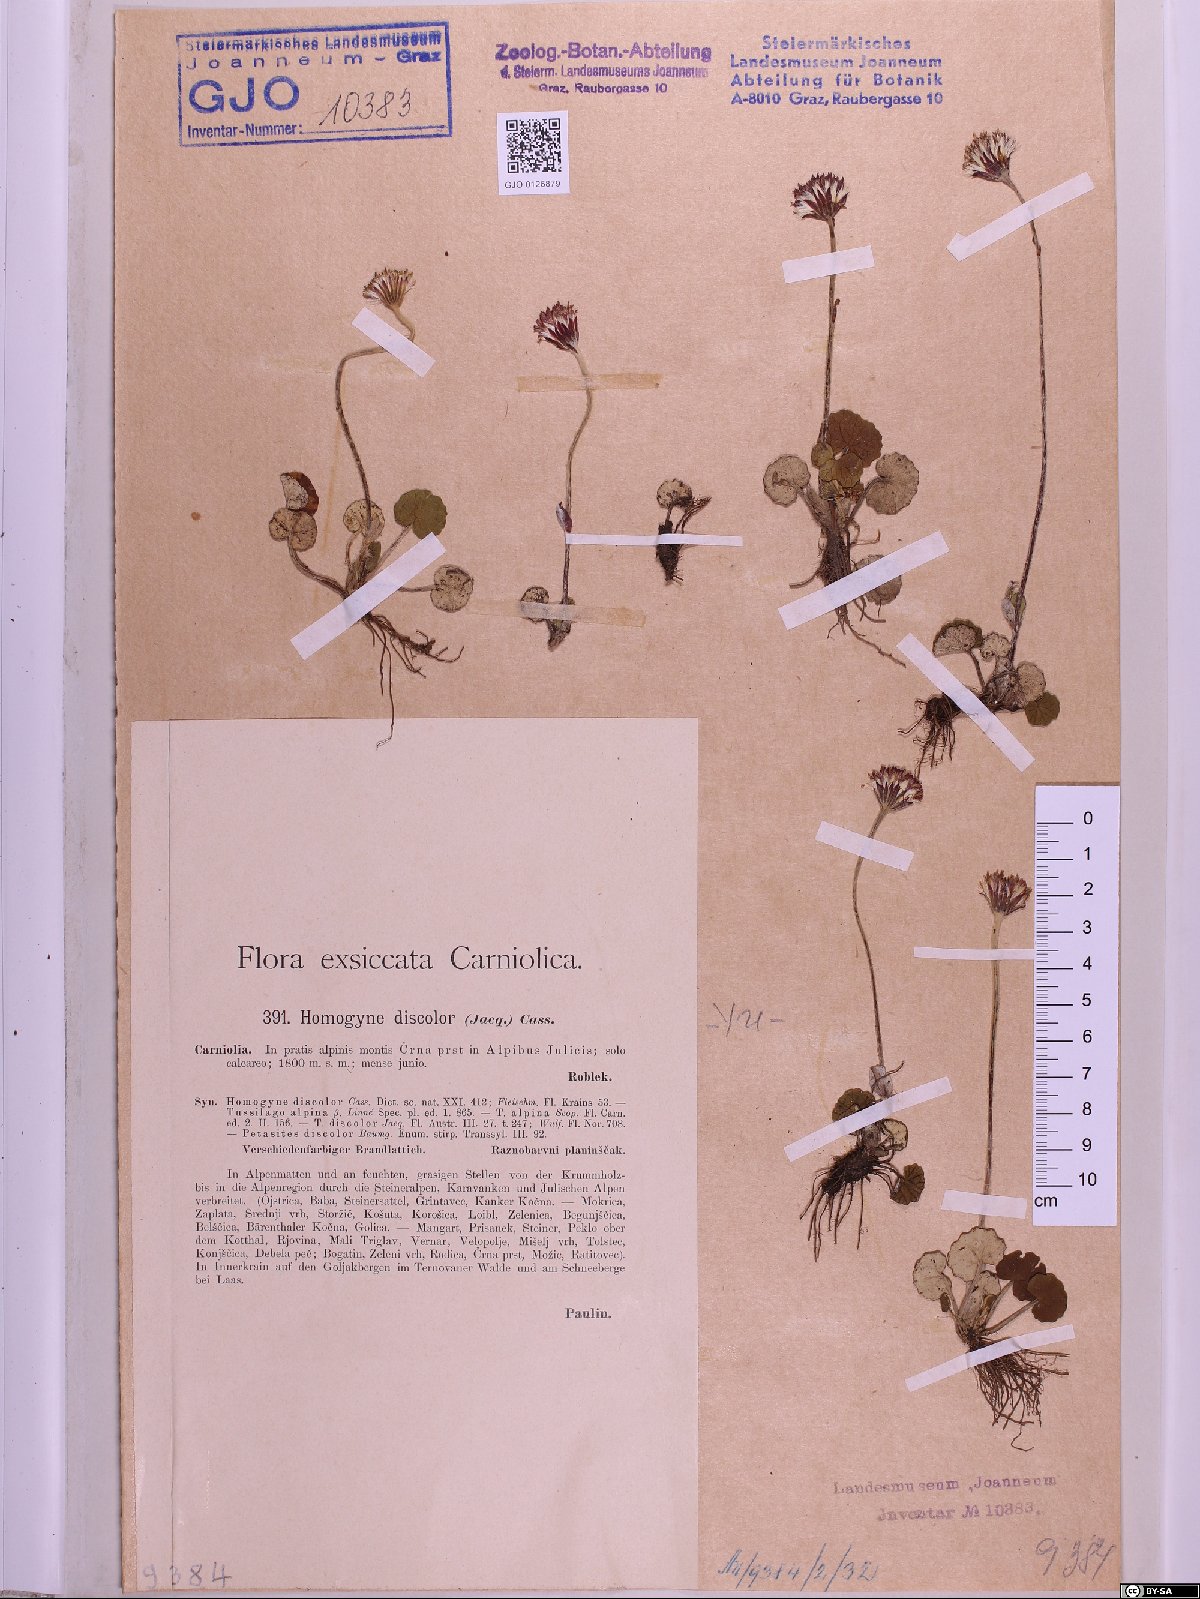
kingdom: Plantae
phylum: Tracheophyta
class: Magnoliopsida
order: Asterales
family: Asteraceae
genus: Homogyne
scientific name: Homogyne discolor
